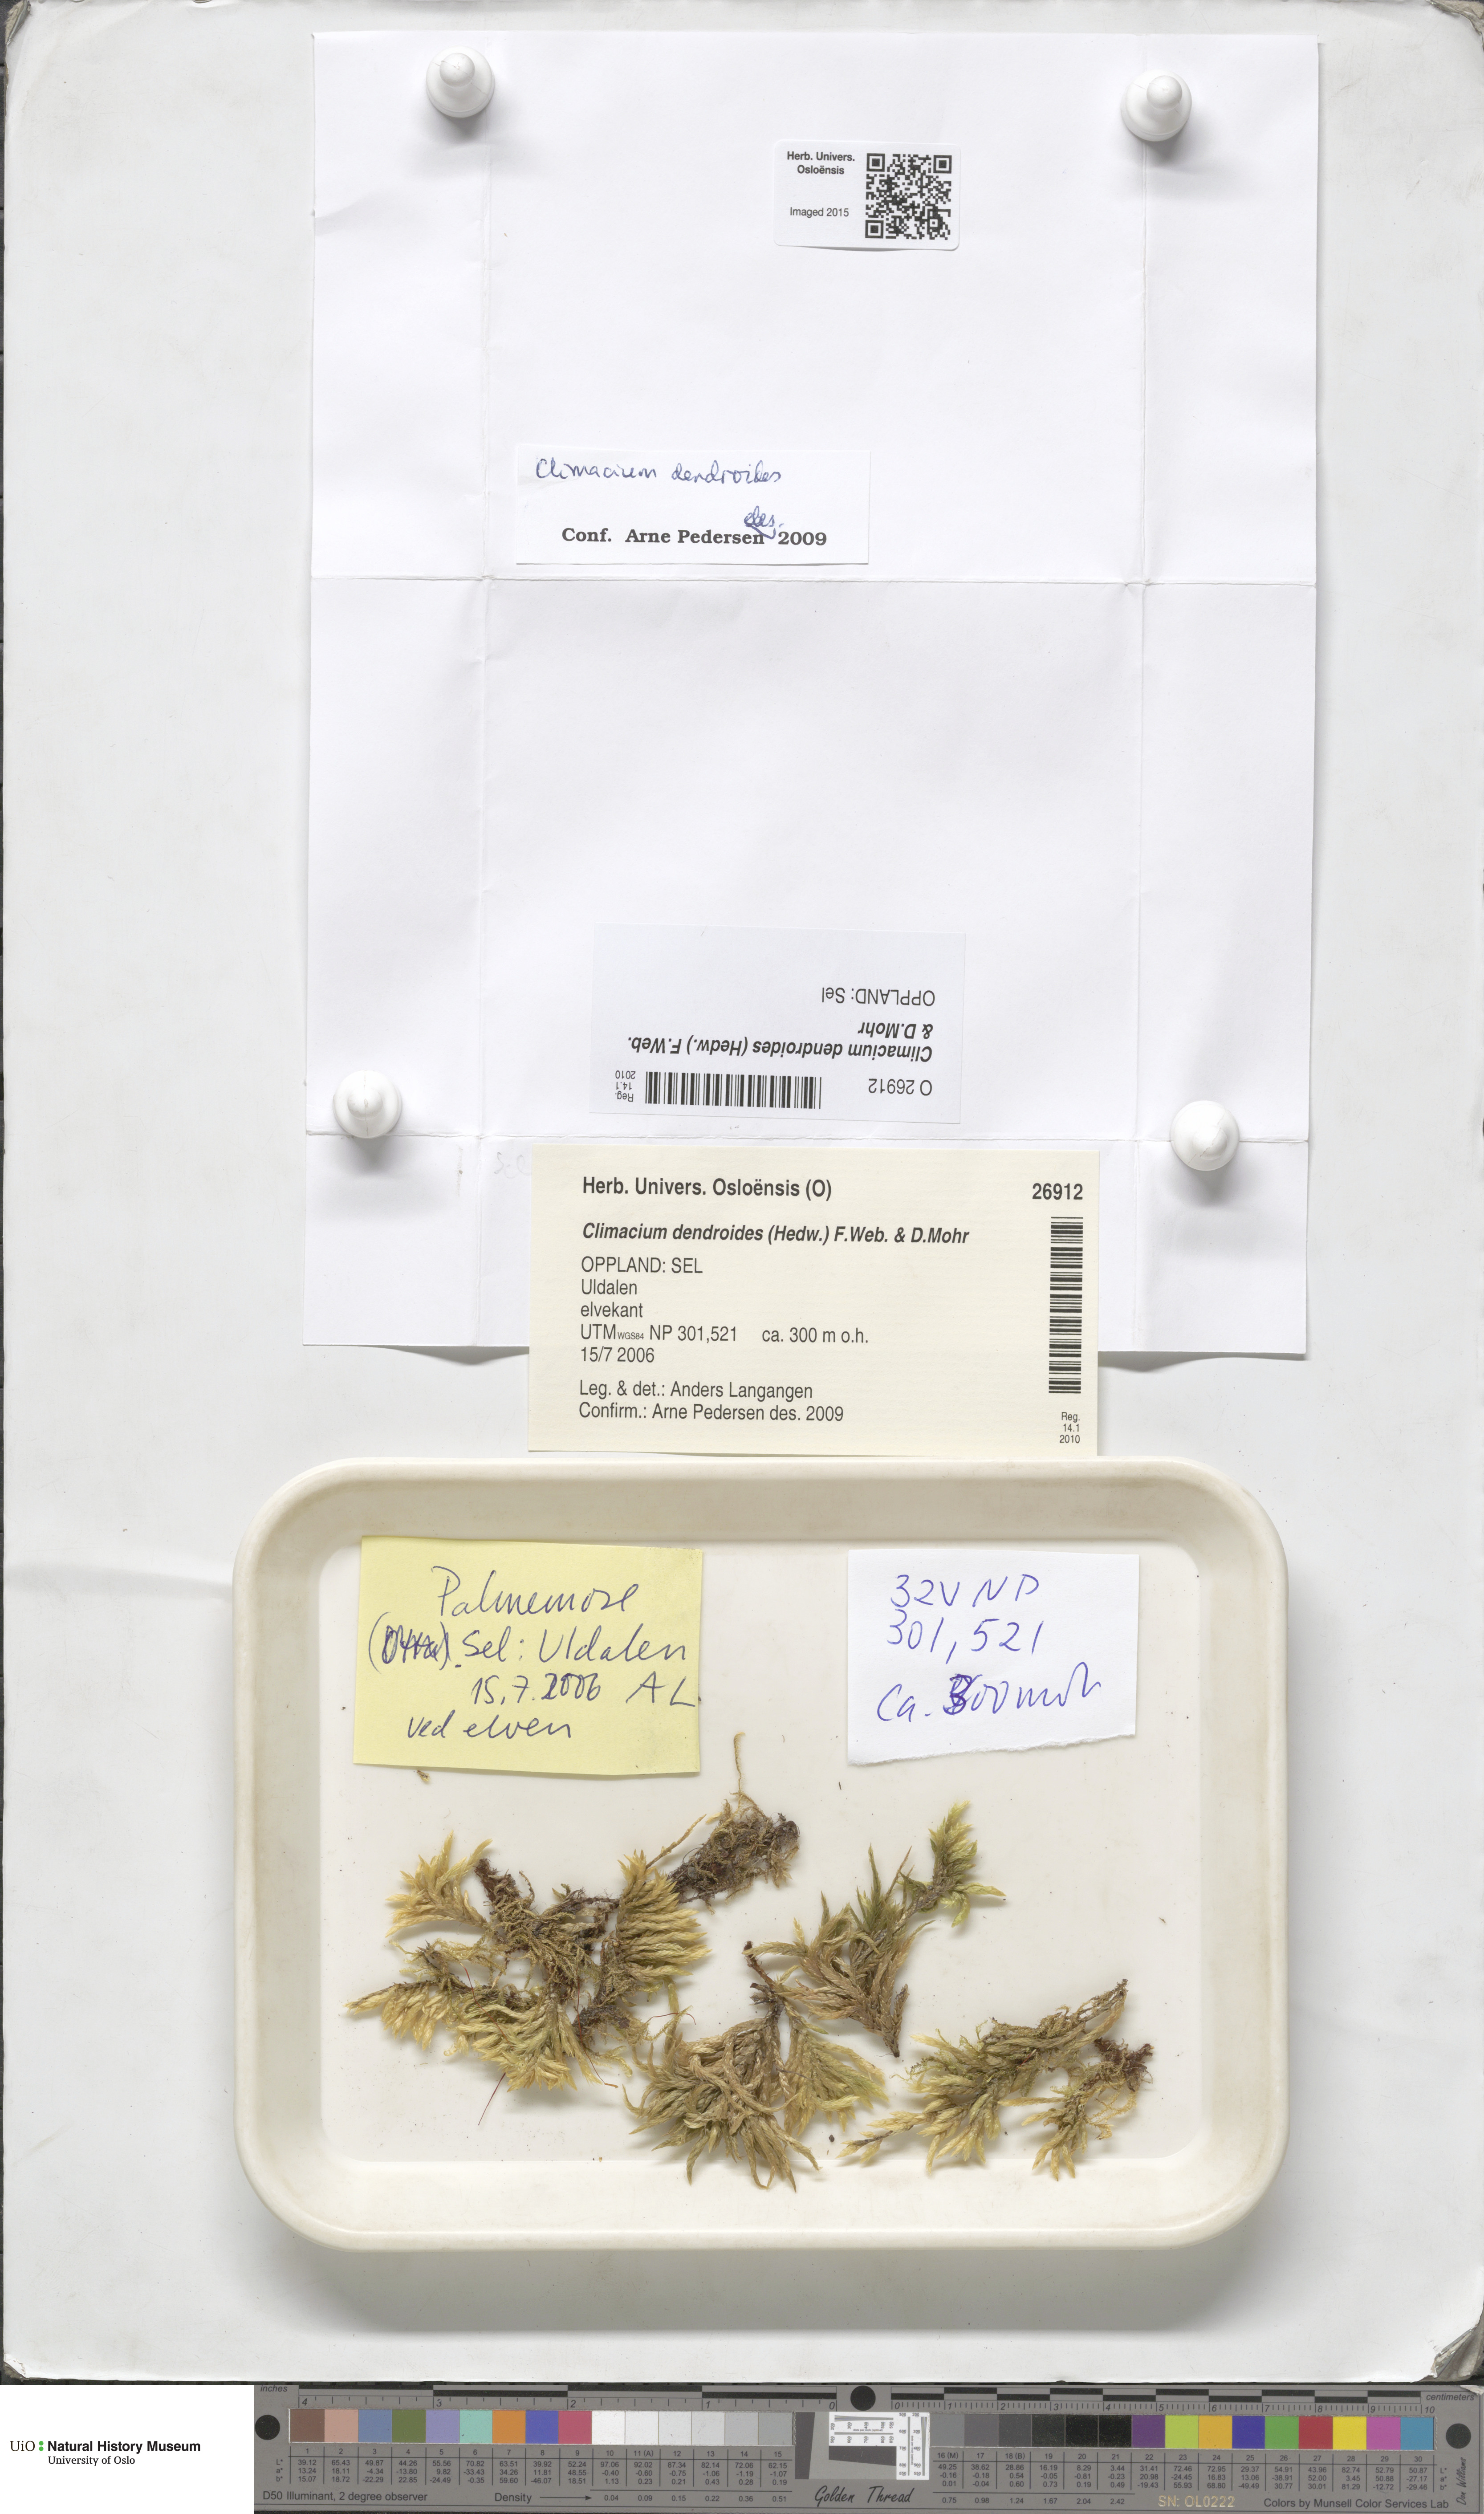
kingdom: Plantae
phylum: Bryophyta
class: Bryopsida
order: Hypnales
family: Climaciaceae
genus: Climacium
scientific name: Climacium dendroides
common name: Northern tree moss
